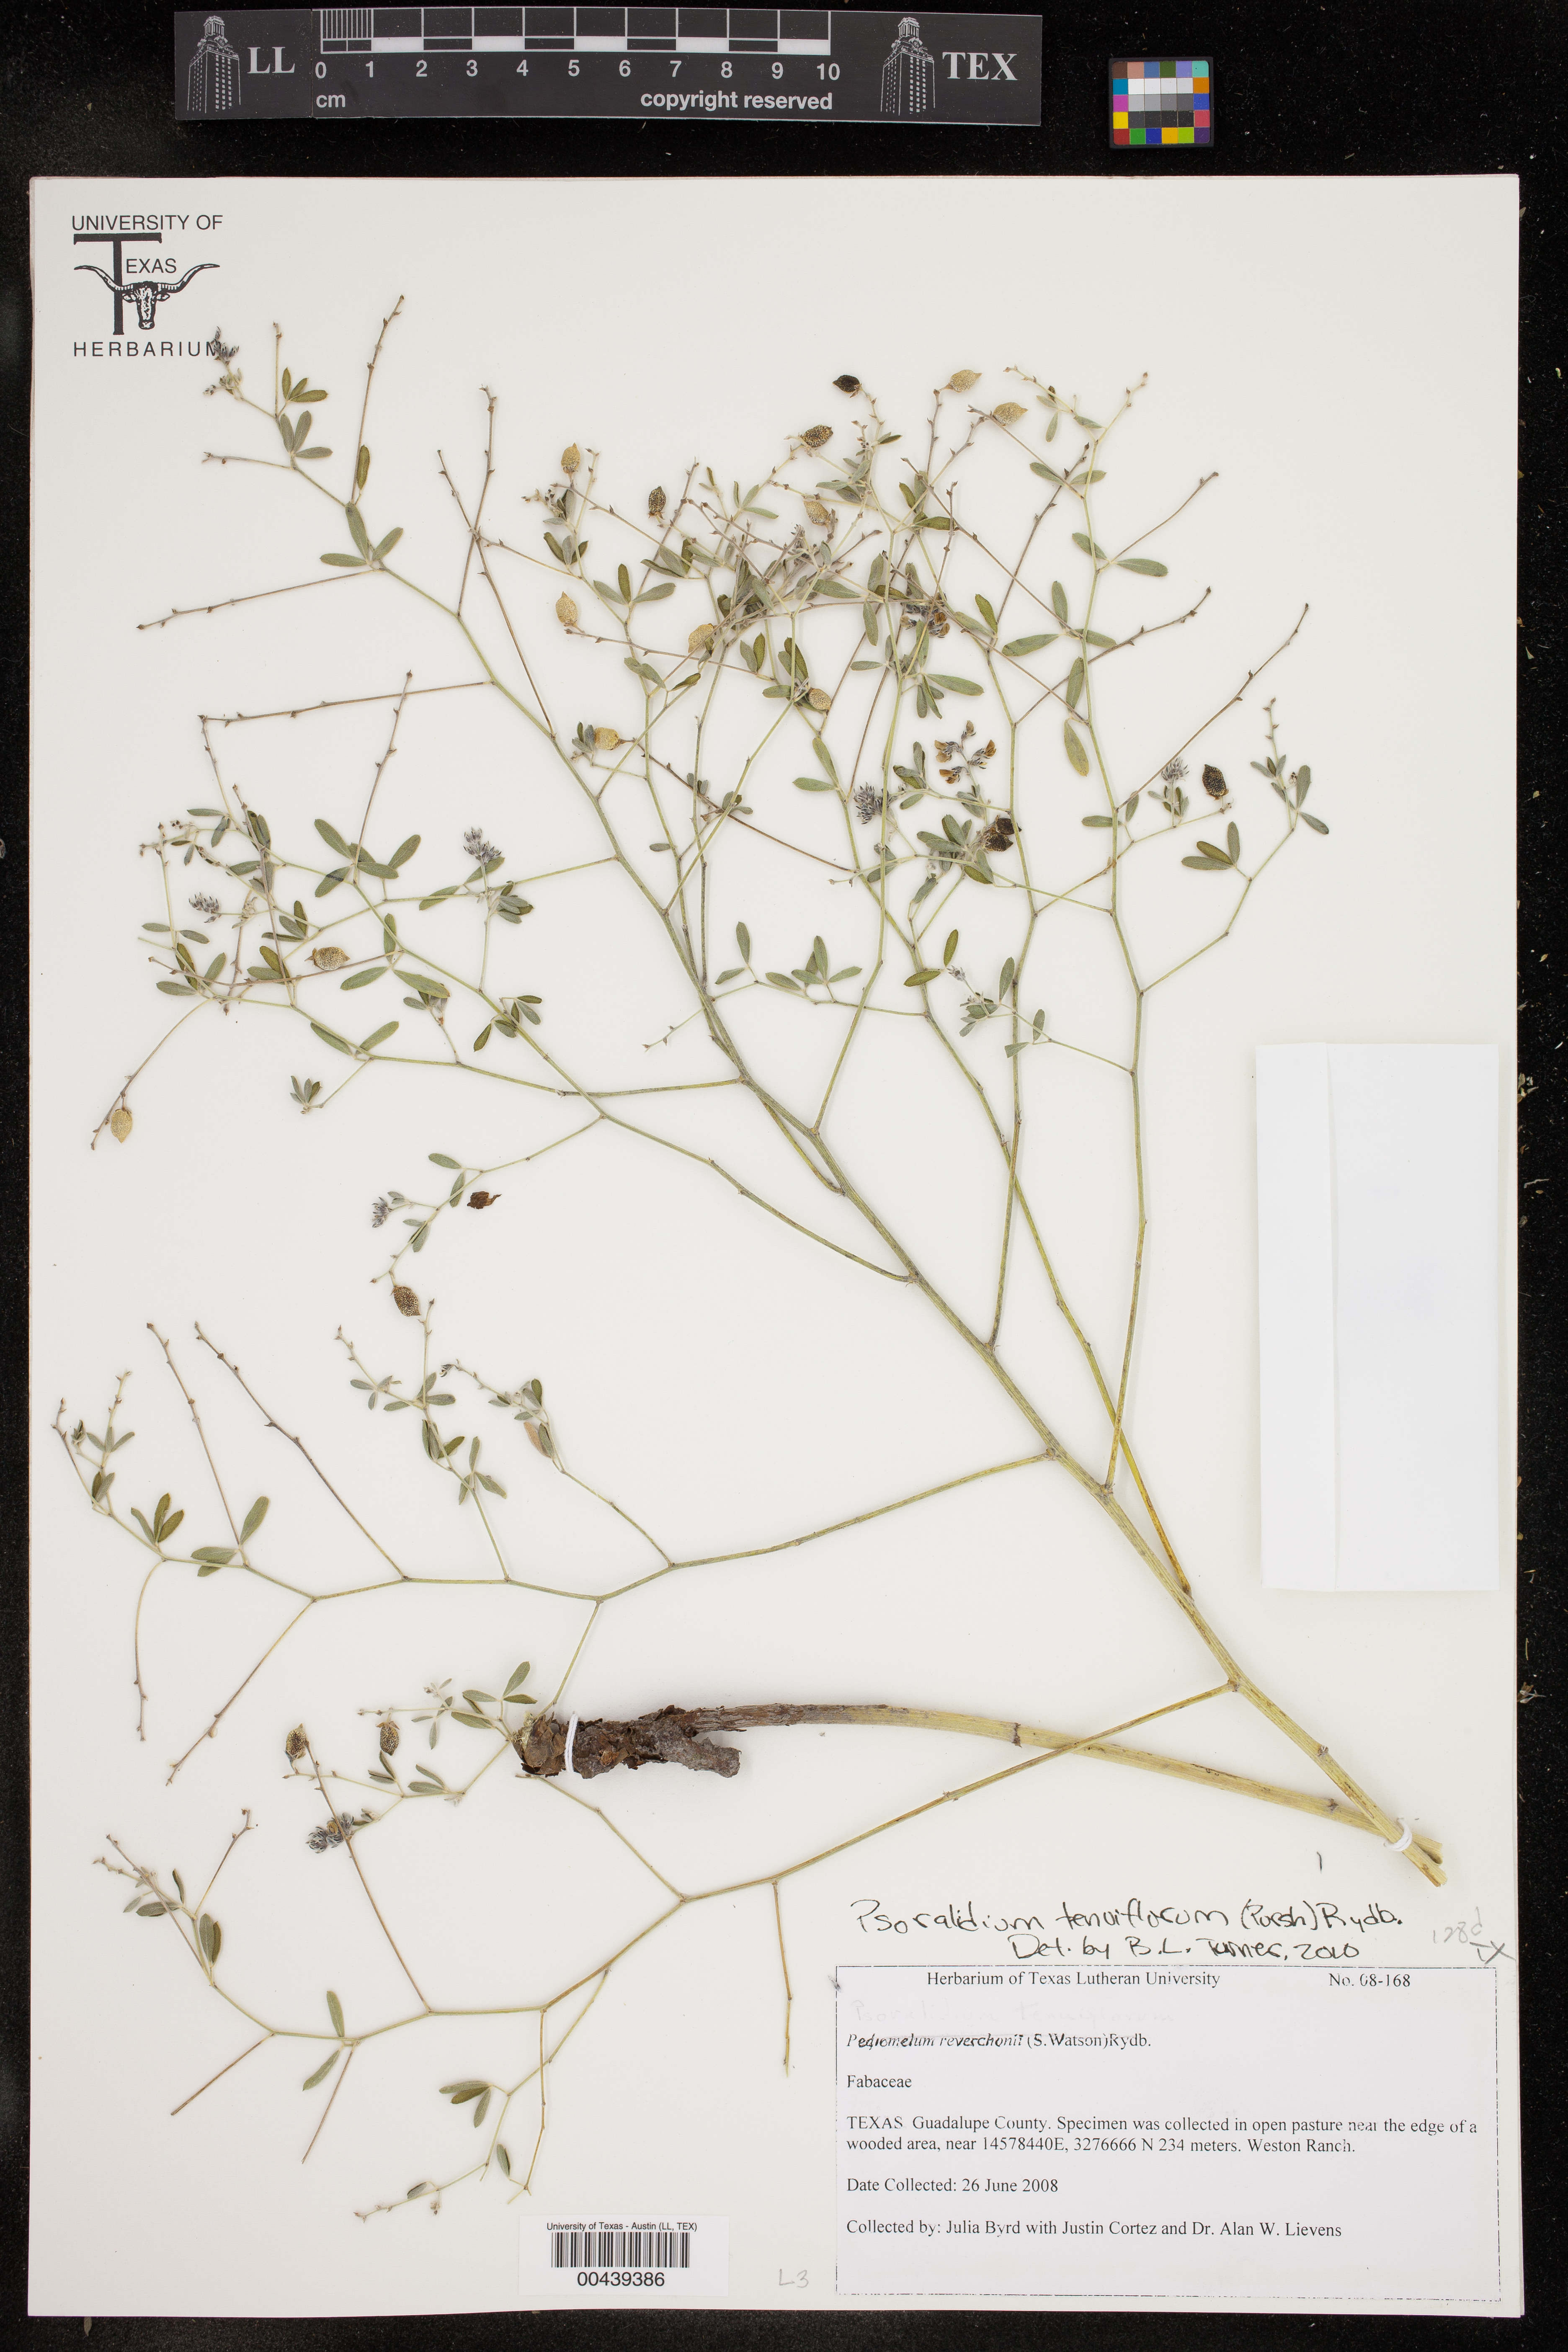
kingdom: Plantae
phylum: Tracheophyta
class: Magnoliopsida
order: Fabales
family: Fabaceae
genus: Pediomelum
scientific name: Pediomelum tenuiflorum
